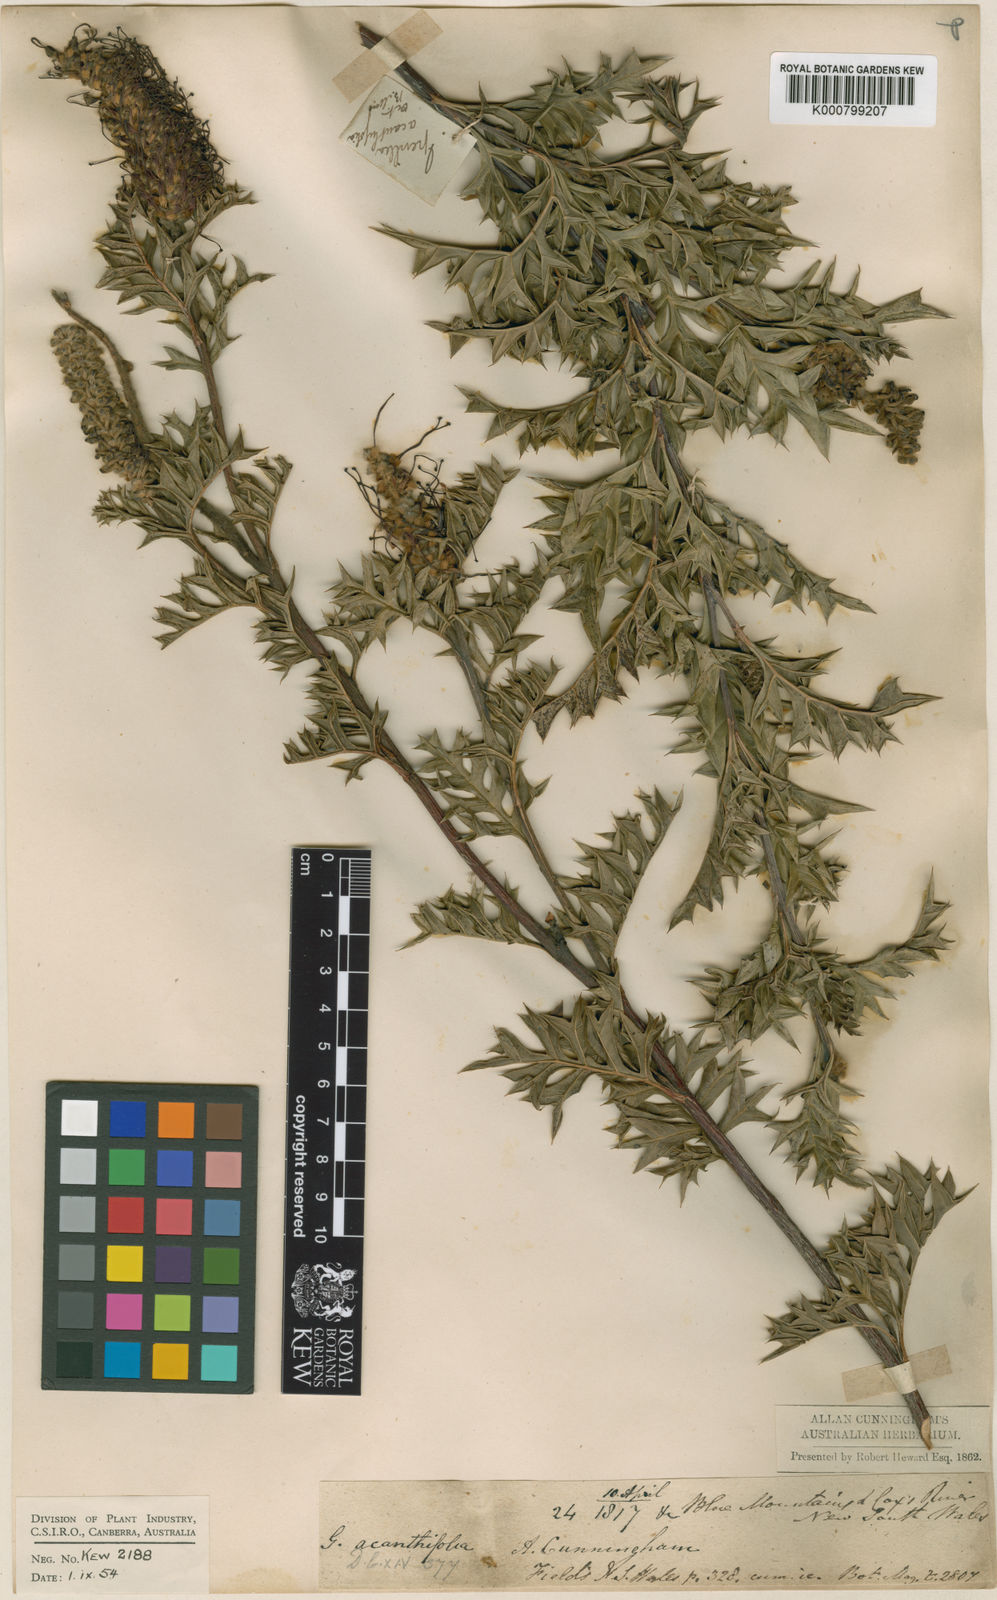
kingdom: Plantae
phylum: Tracheophyta
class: Magnoliopsida
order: Proteales
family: Proteaceae
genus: Grevillea
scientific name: Grevillea acanthifolia
